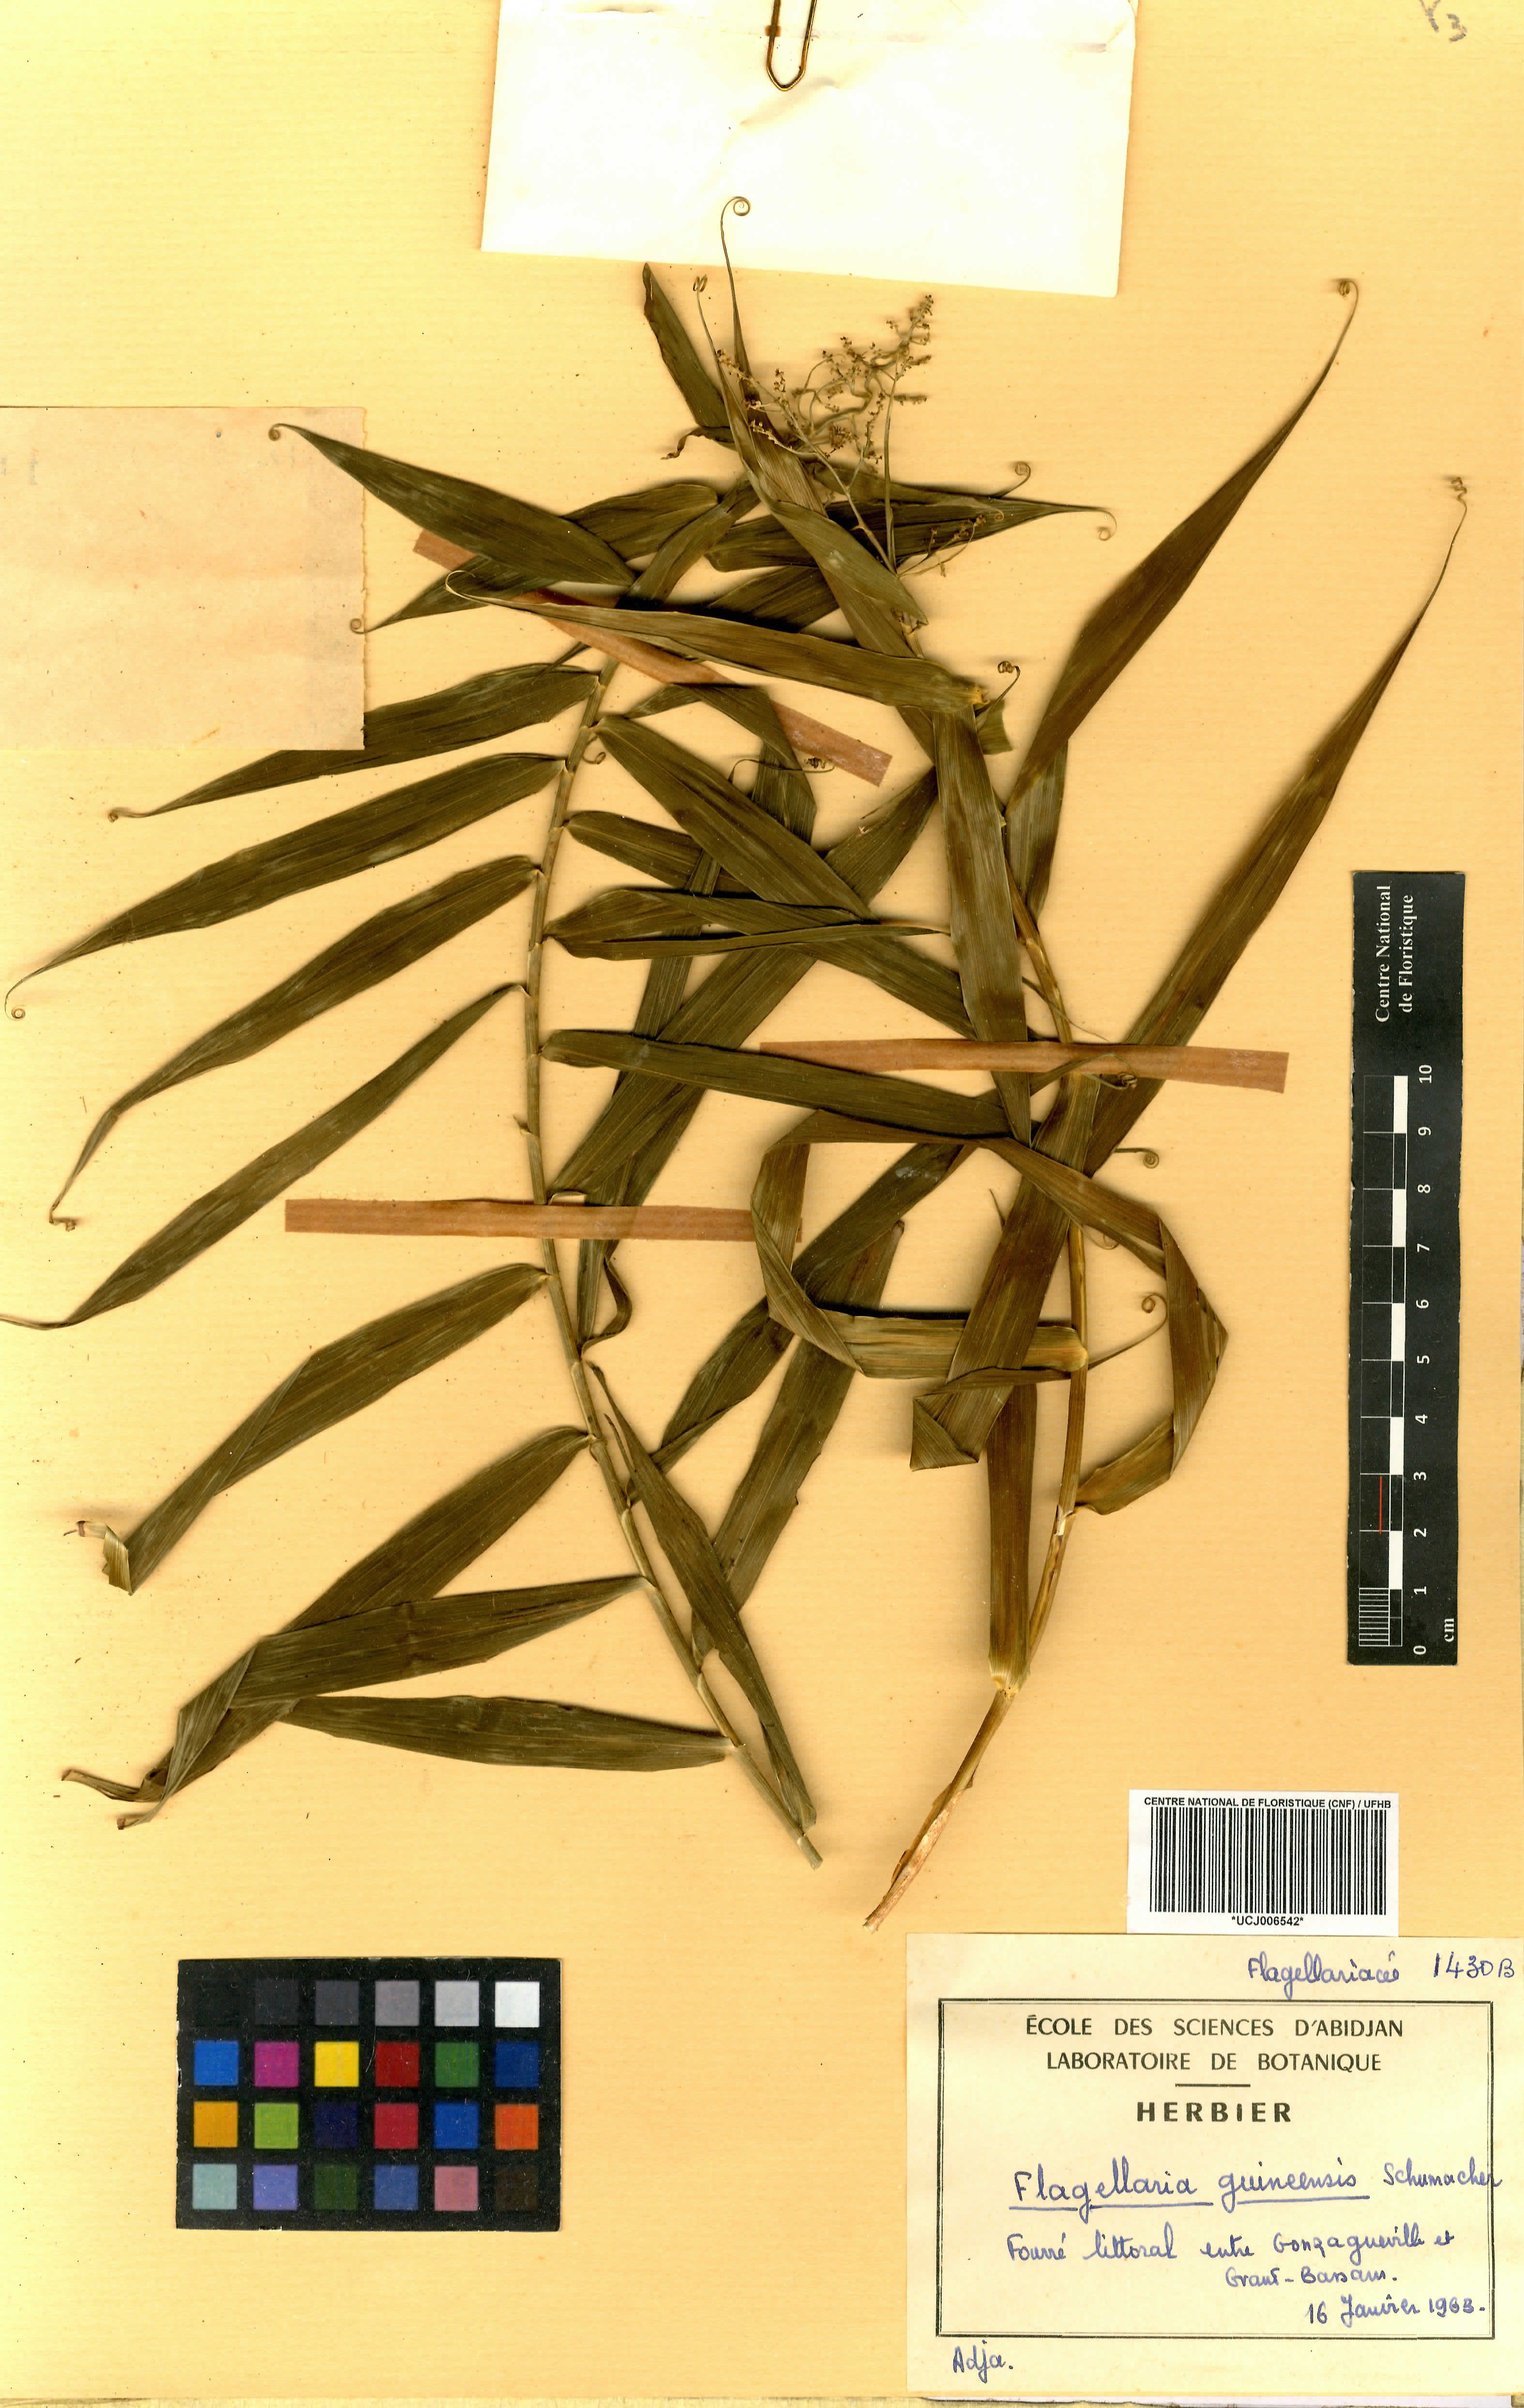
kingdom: Plantae
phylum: Tracheophyta
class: Liliopsida
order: Poales
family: Flagellariaceae
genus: Flagellaria
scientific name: Flagellaria guineensis
